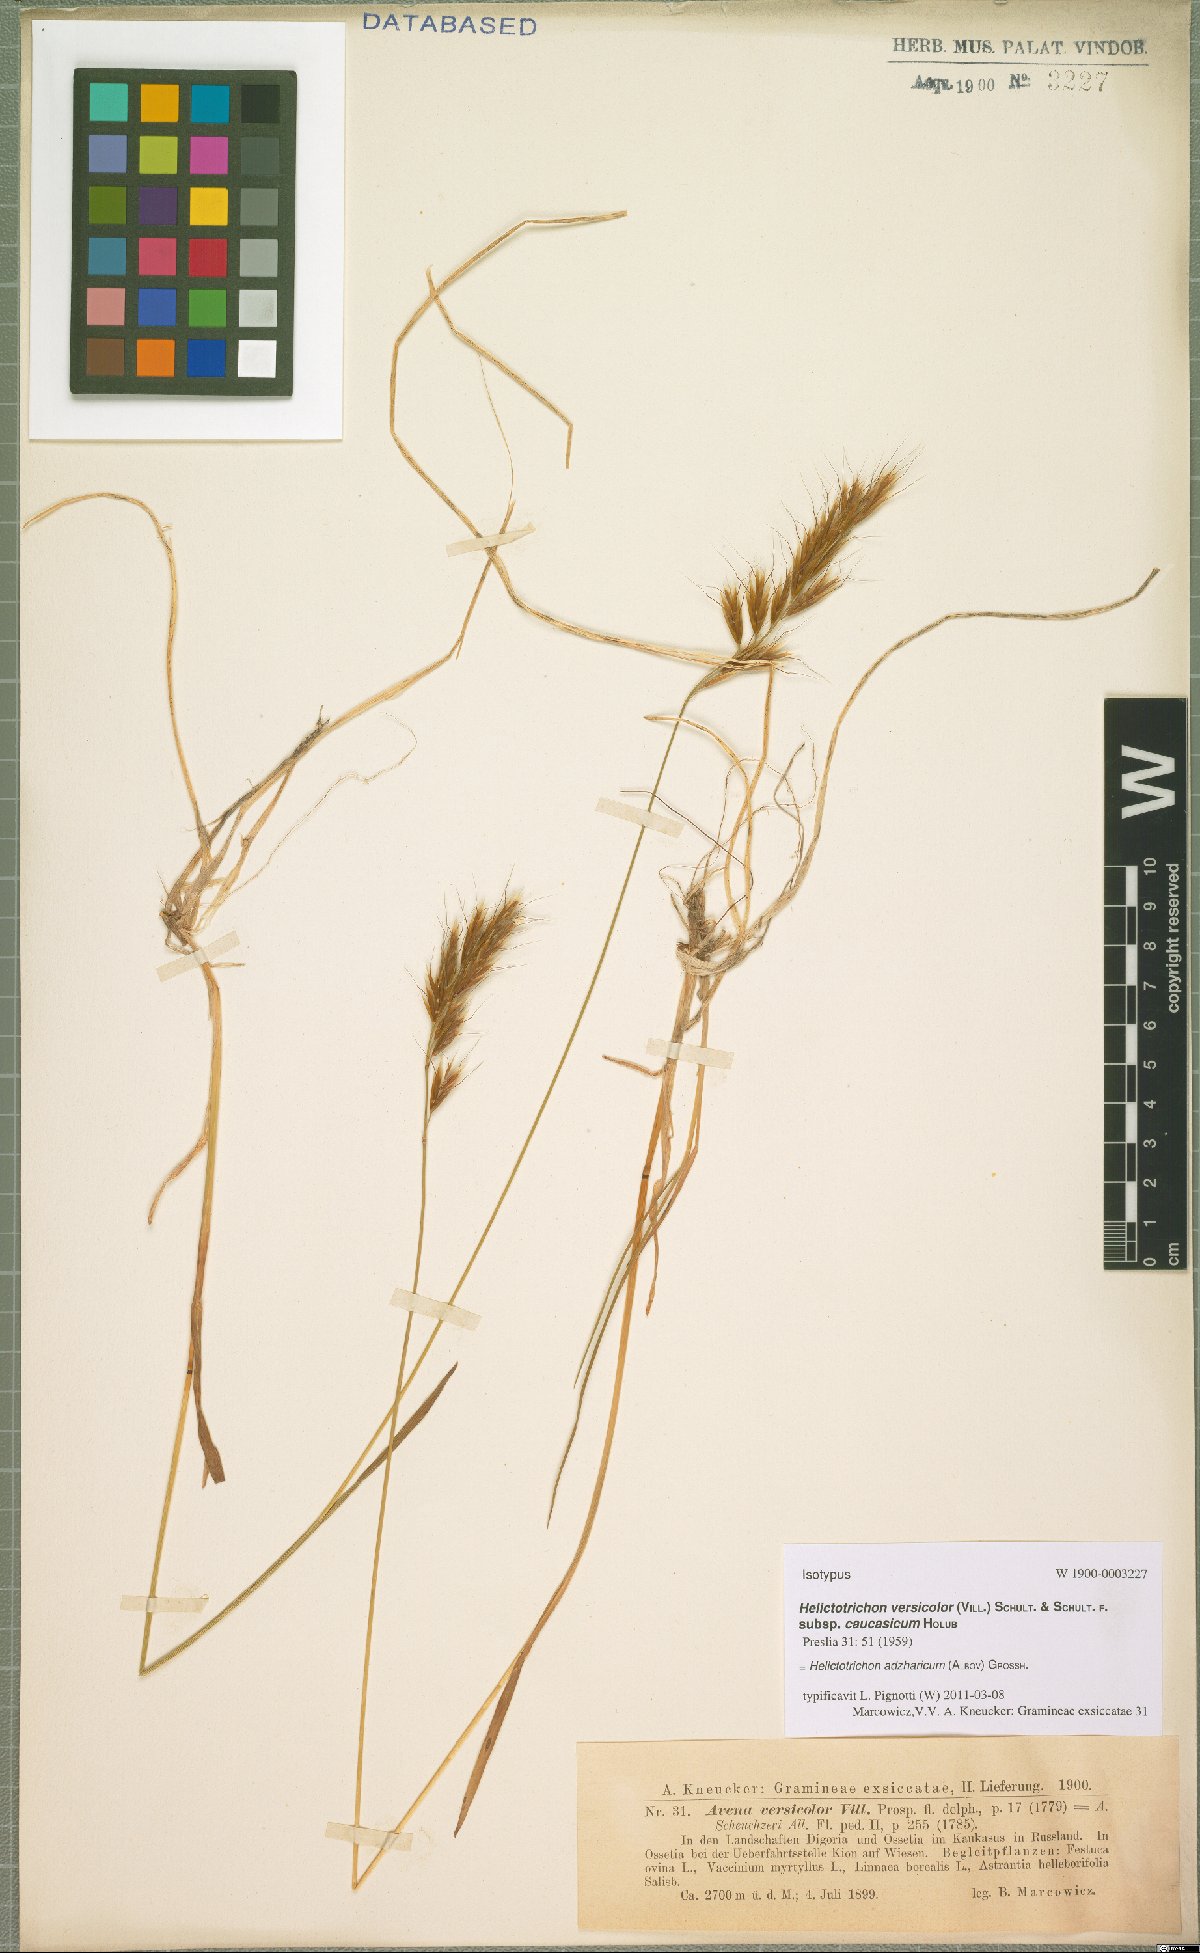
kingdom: Plantae
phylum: Tracheophyta
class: Liliopsida
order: Poales
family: Poaceae
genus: Helictochloa
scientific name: Helictochloa versicolor
